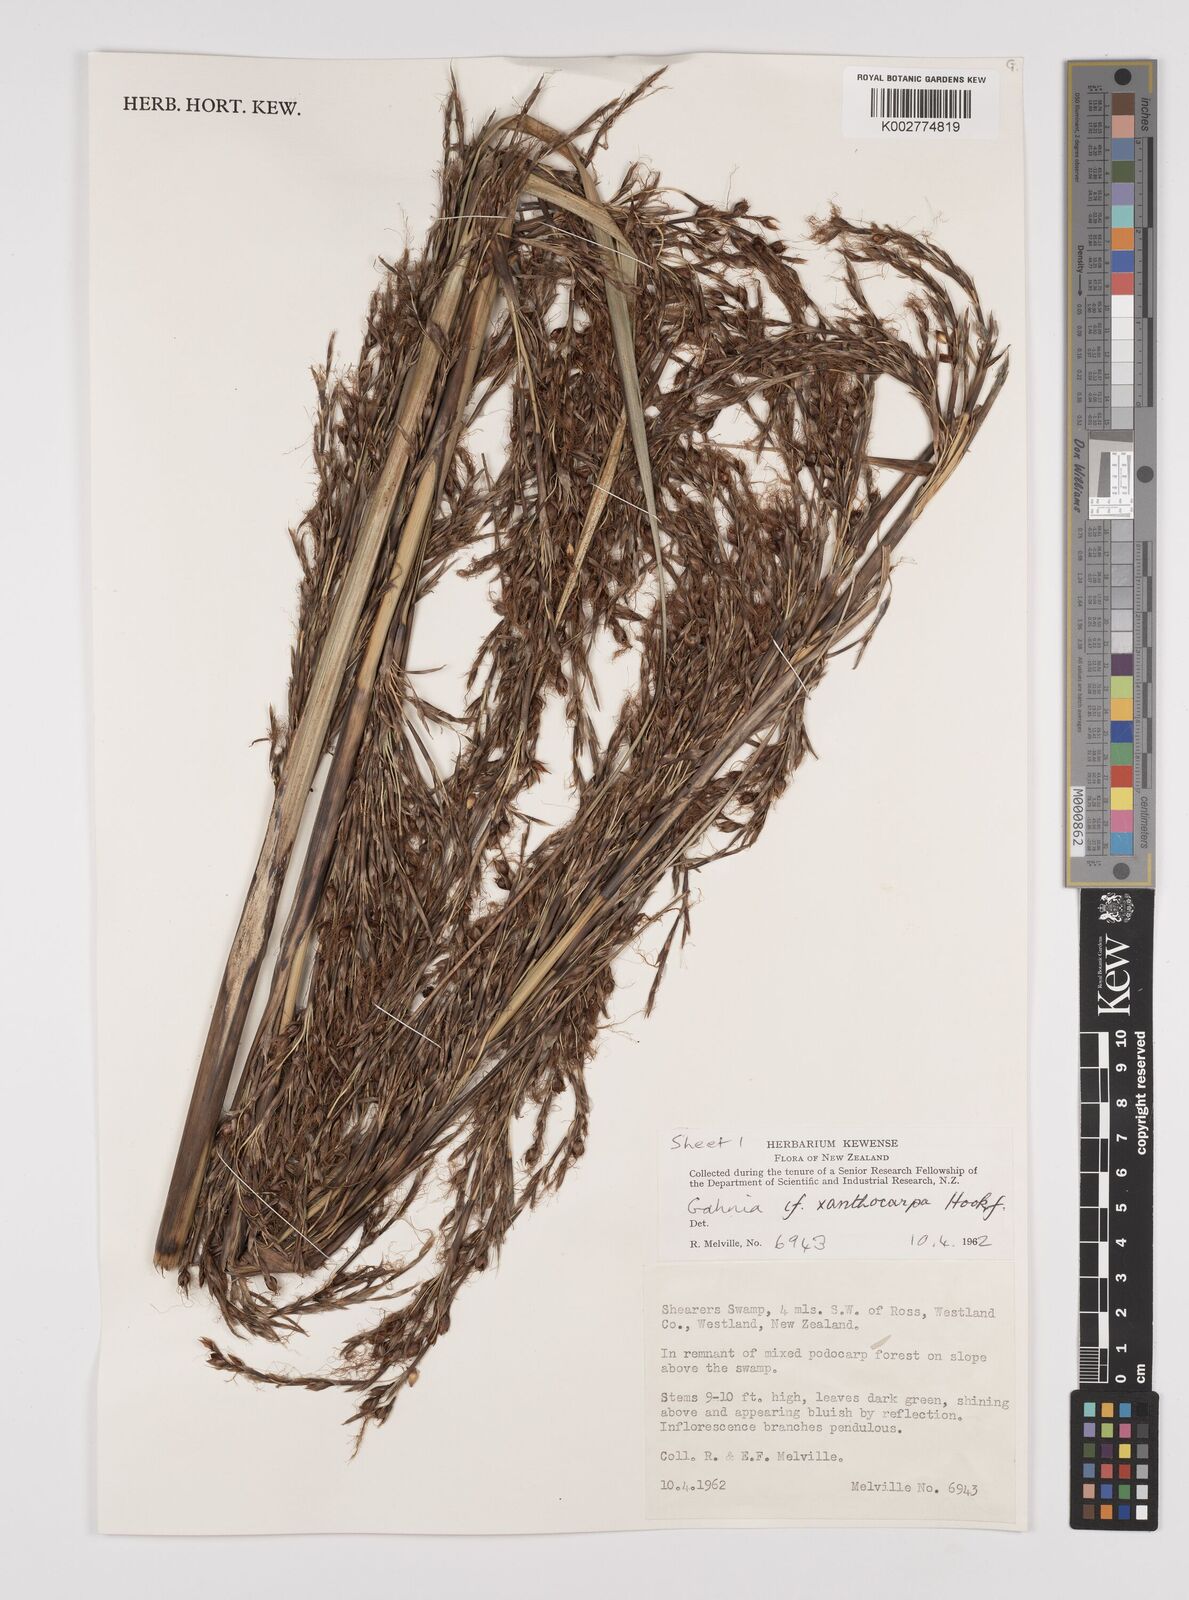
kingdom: Plantae
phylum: Tracheophyta
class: Liliopsida
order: Poales
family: Cyperaceae
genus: Gahnia
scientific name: Gahnia xanthocarpa
